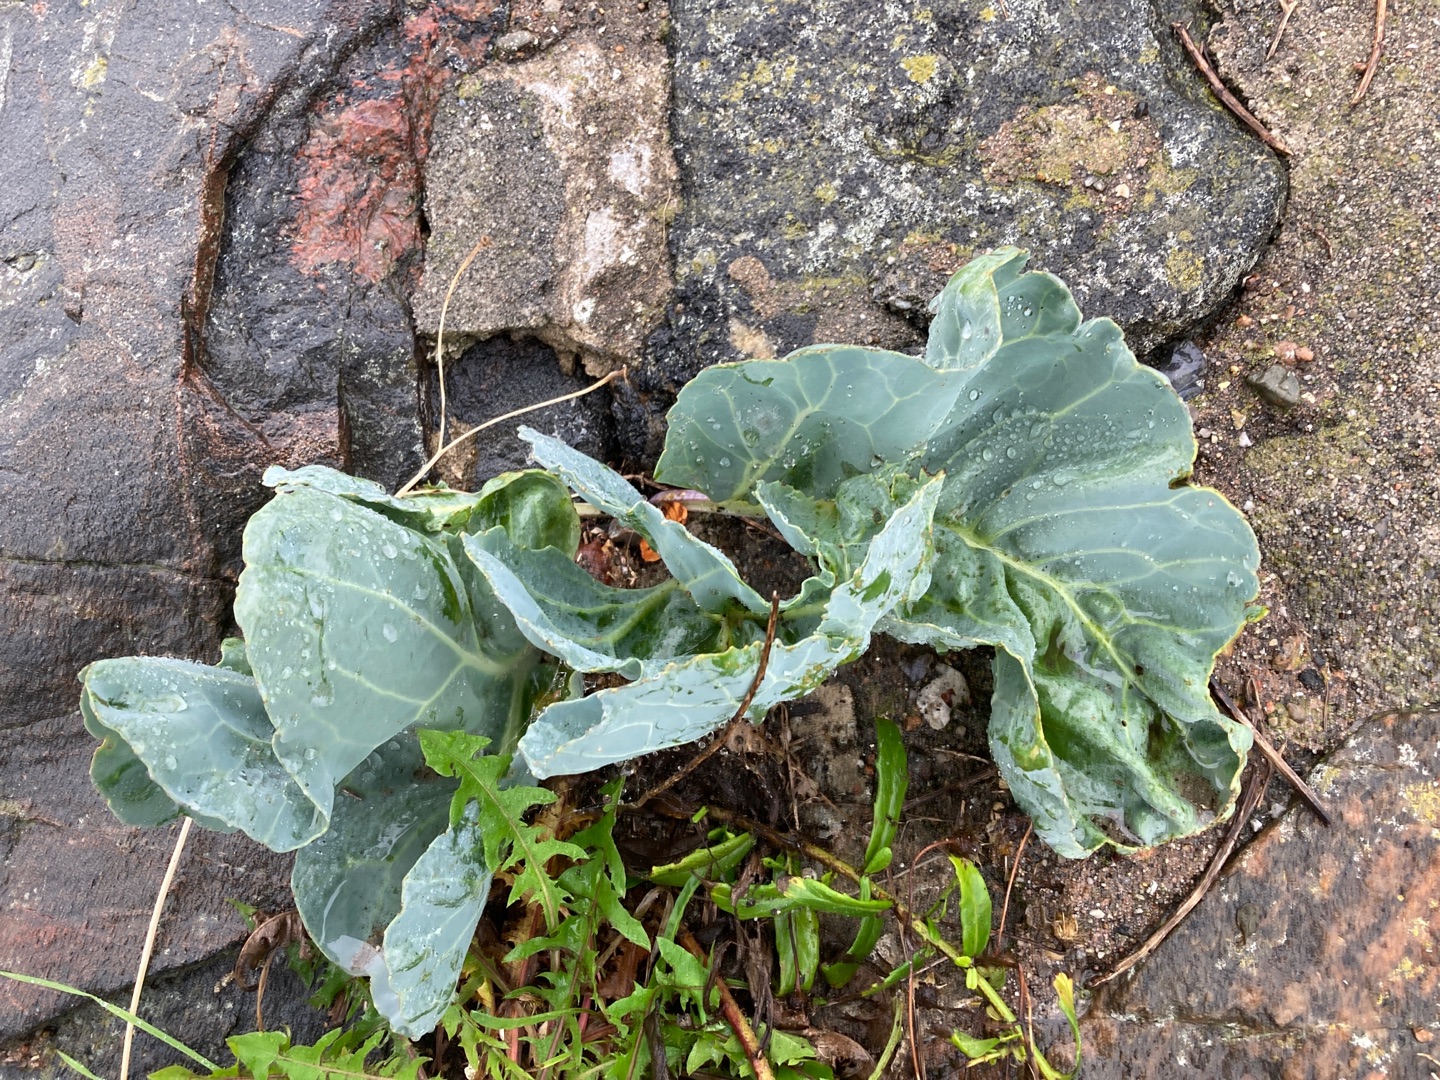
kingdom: Plantae
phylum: Tracheophyta
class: Magnoliopsida
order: Brassicales
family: Brassicaceae
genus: Crambe
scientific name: Crambe maritima
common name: Strandkål
